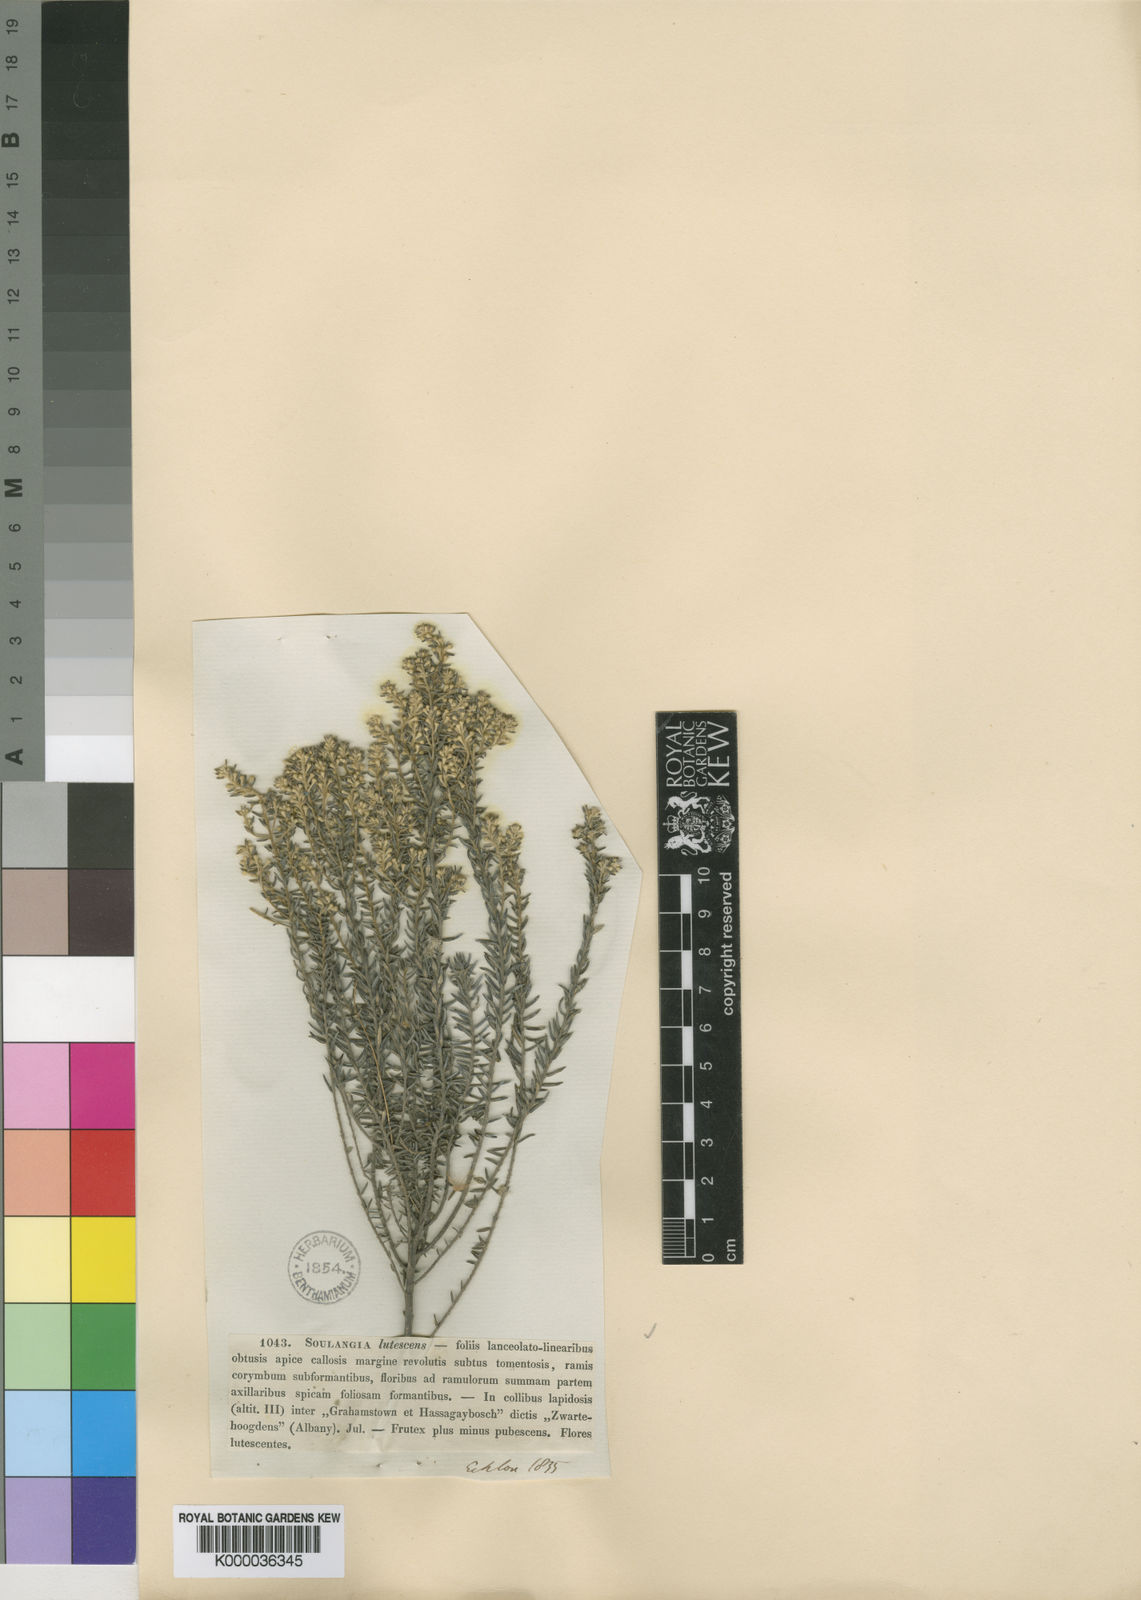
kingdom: Plantae
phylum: Tracheophyta
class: Magnoliopsida
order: Rosales
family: Rhamnaceae
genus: Phylica
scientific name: Phylica axillaris
